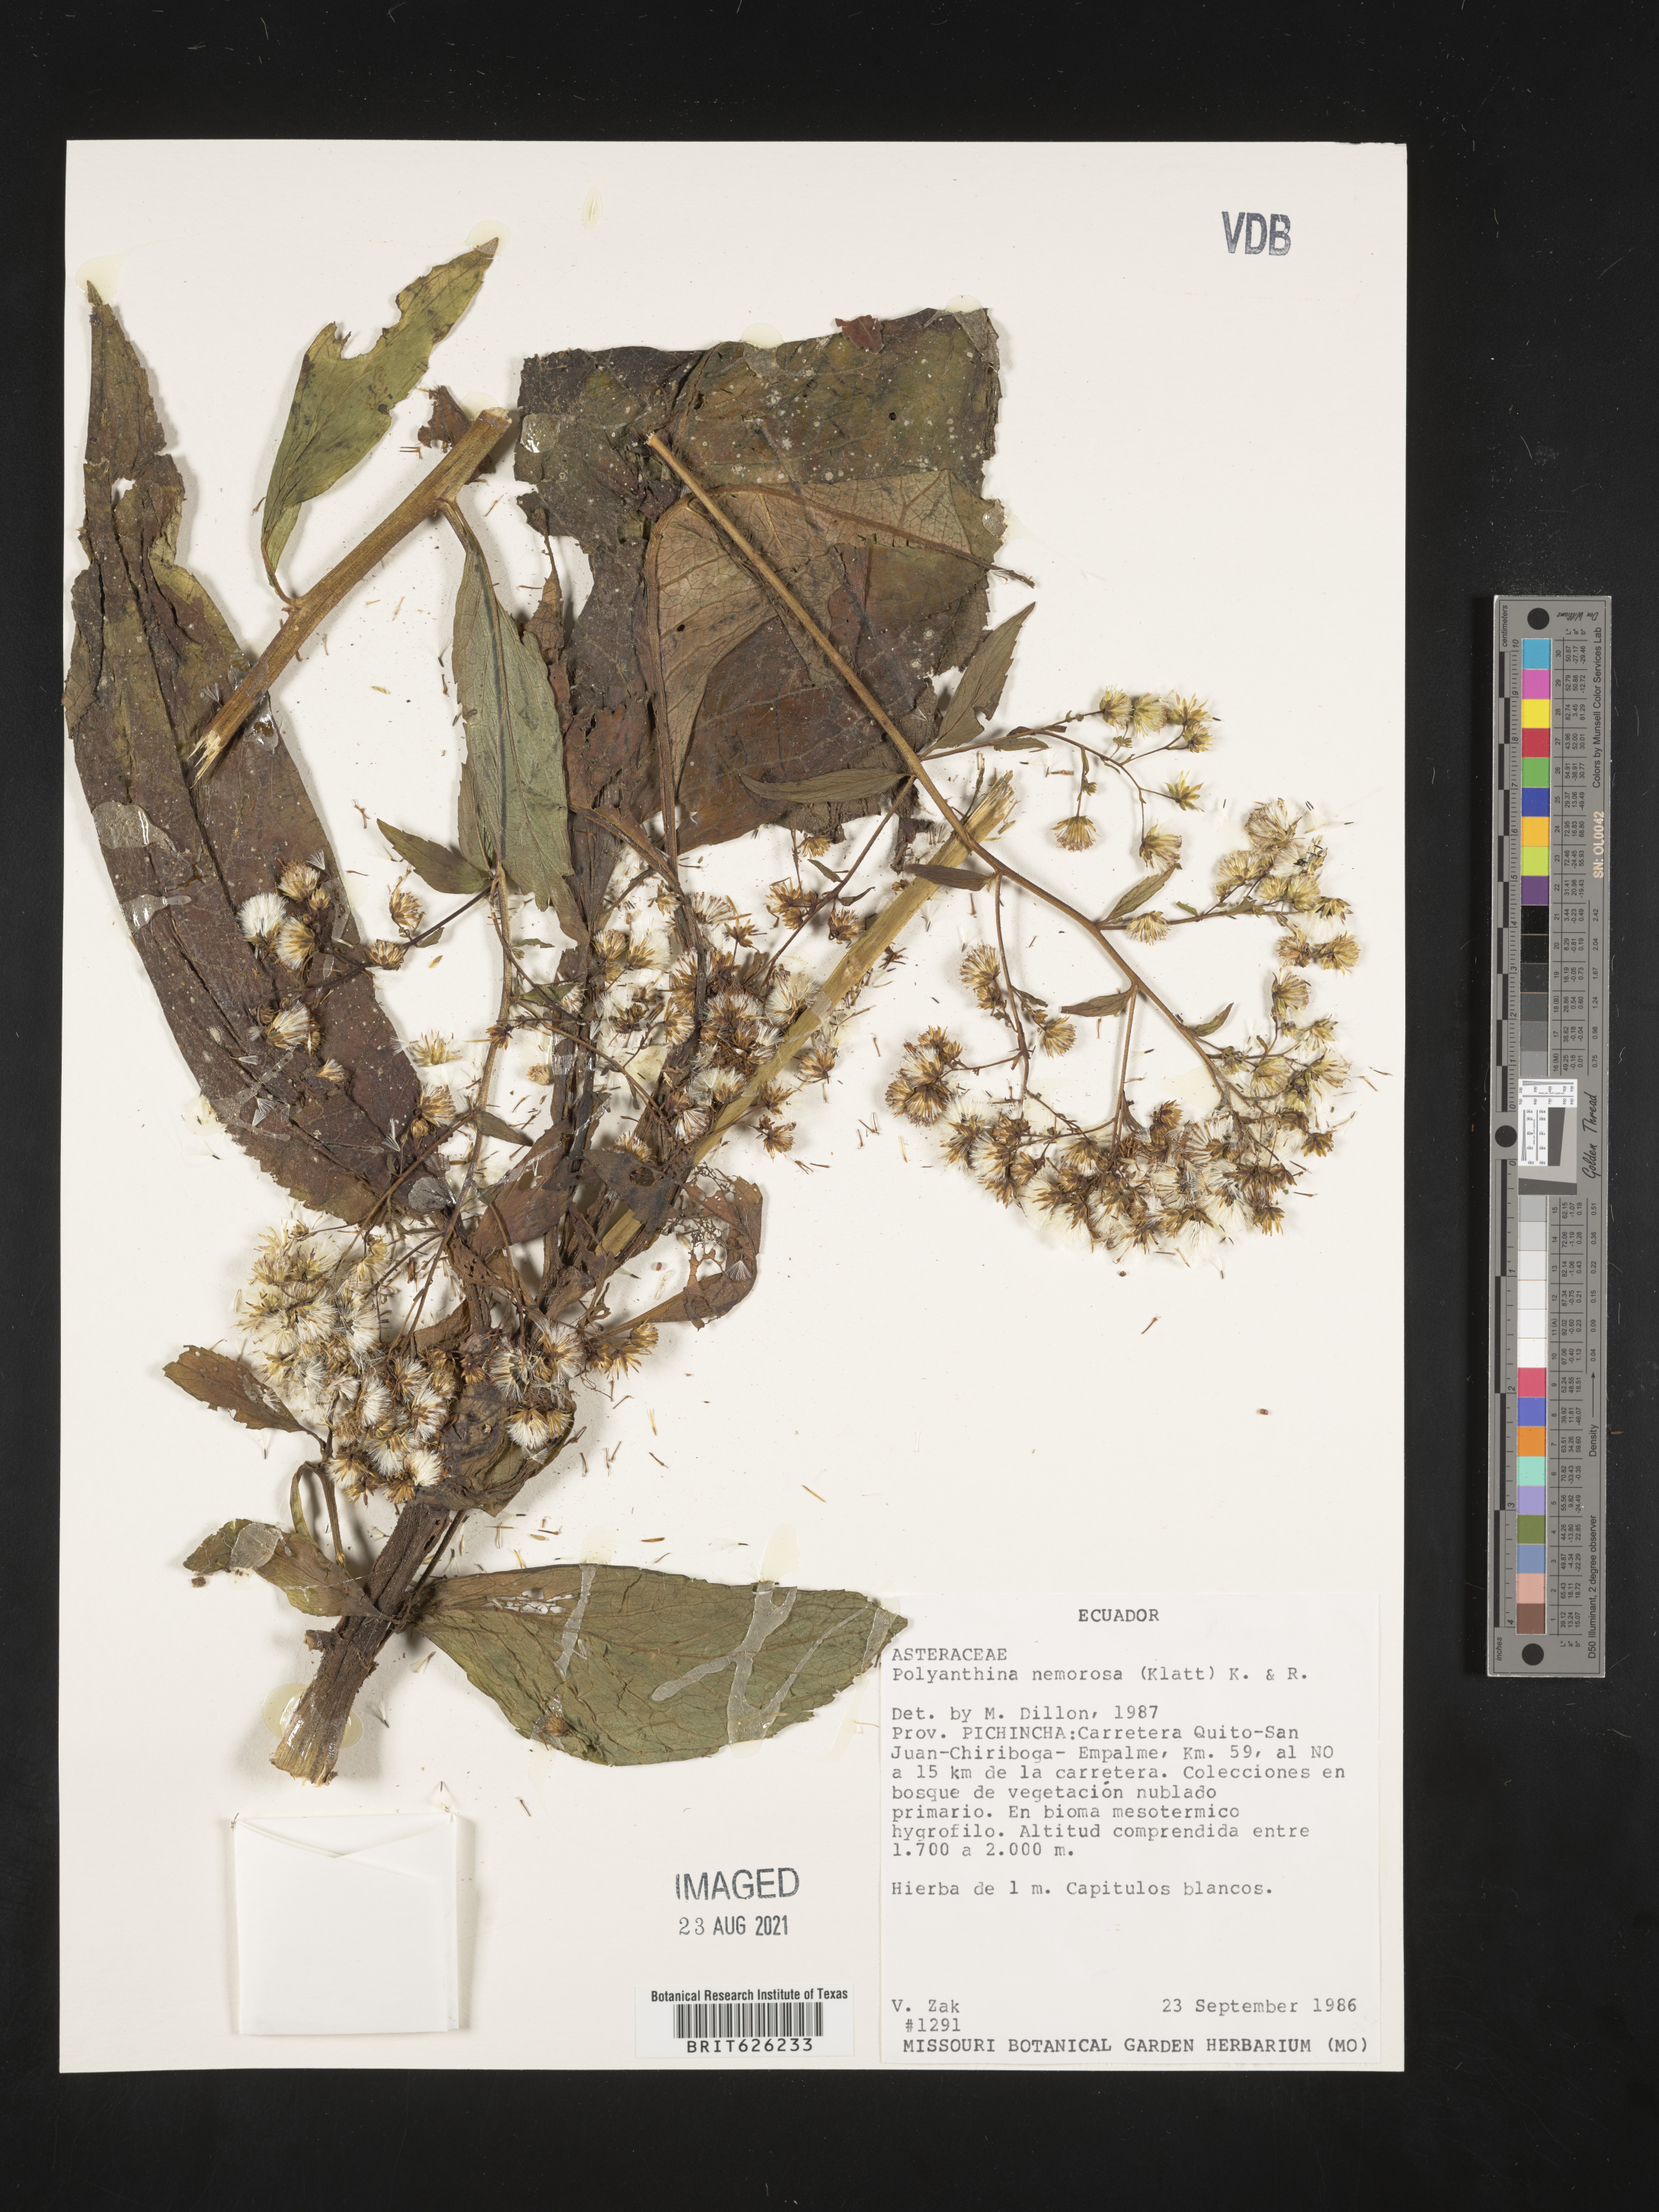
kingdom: Plantae
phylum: Tracheophyta
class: Magnoliopsida
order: Asterales
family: Asteraceae
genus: Polyanthina
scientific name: Polyanthina nemorosa
